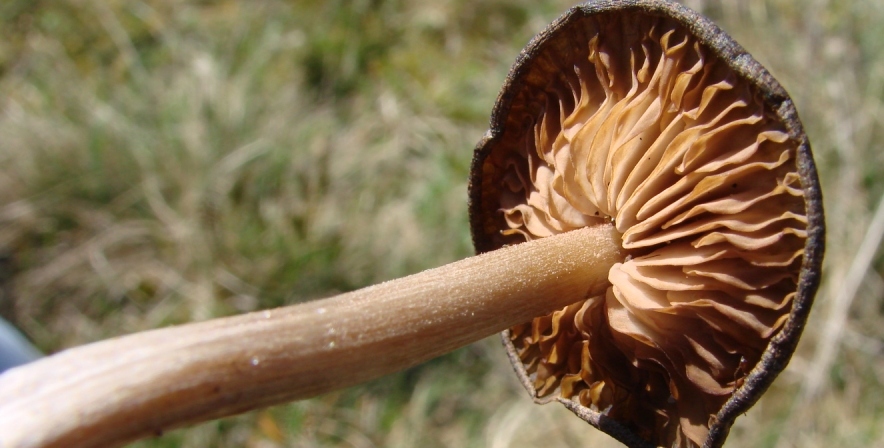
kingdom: Fungi
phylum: Basidiomycota
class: Agaricomycetes
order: Agaricales
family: Entolomataceae
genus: Entoloma
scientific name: Entoloma cuneatum
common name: dunstokket rødblad
